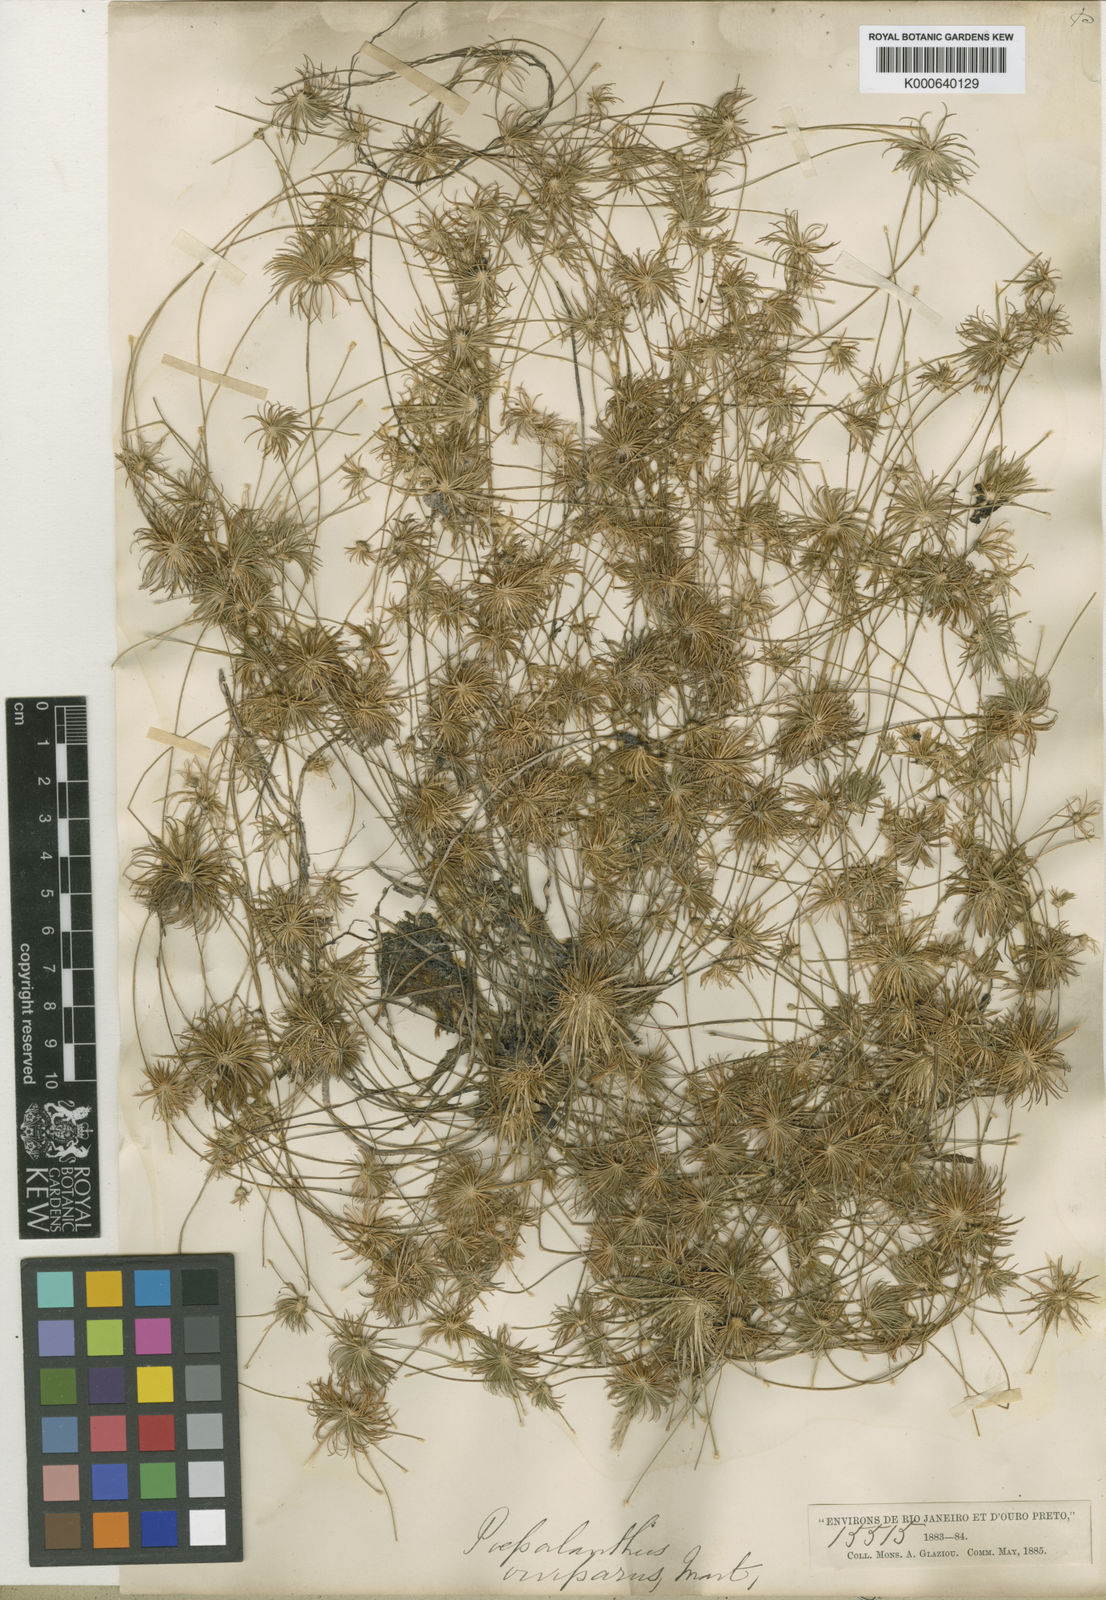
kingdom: Plantae
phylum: Tracheophyta
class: Liliopsida
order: Poales
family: Eriocaulaceae
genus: Leiothrix
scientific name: Leiothrix vivipara
